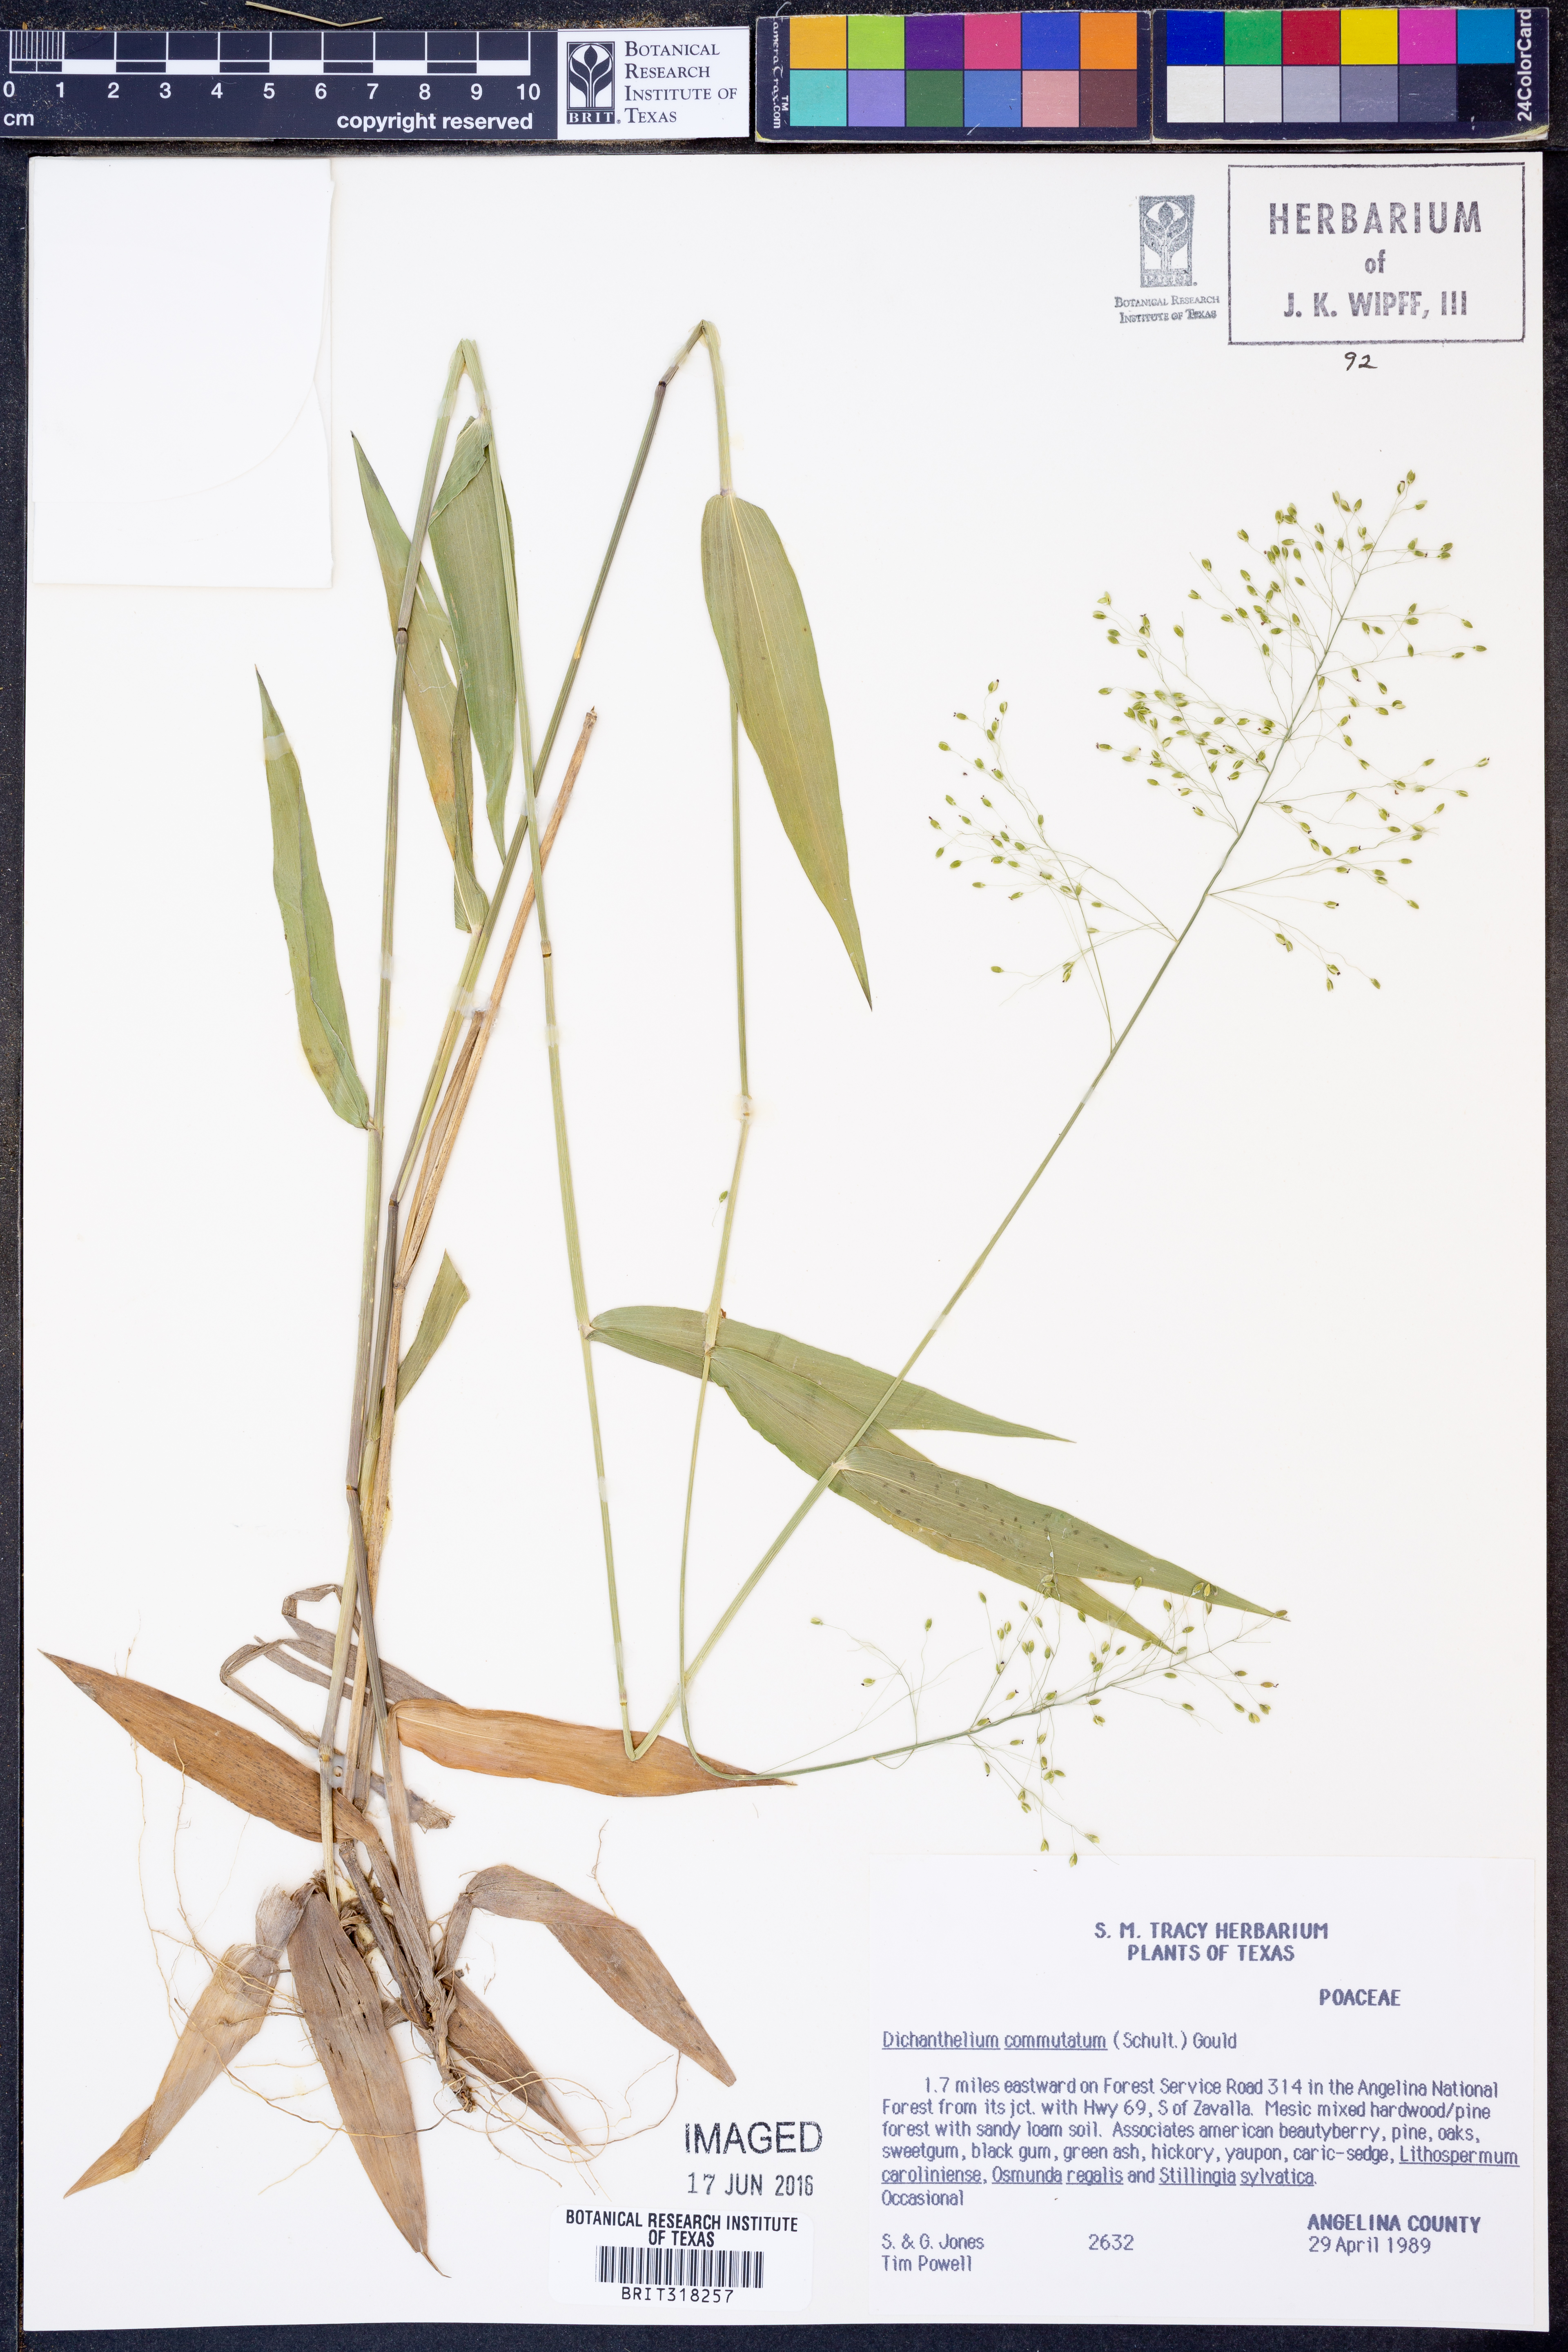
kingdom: Plantae
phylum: Tracheophyta
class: Liliopsida
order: Poales
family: Poaceae
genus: Dichanthelium
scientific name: Dichanthelium commutatum
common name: Variable witchgrass
